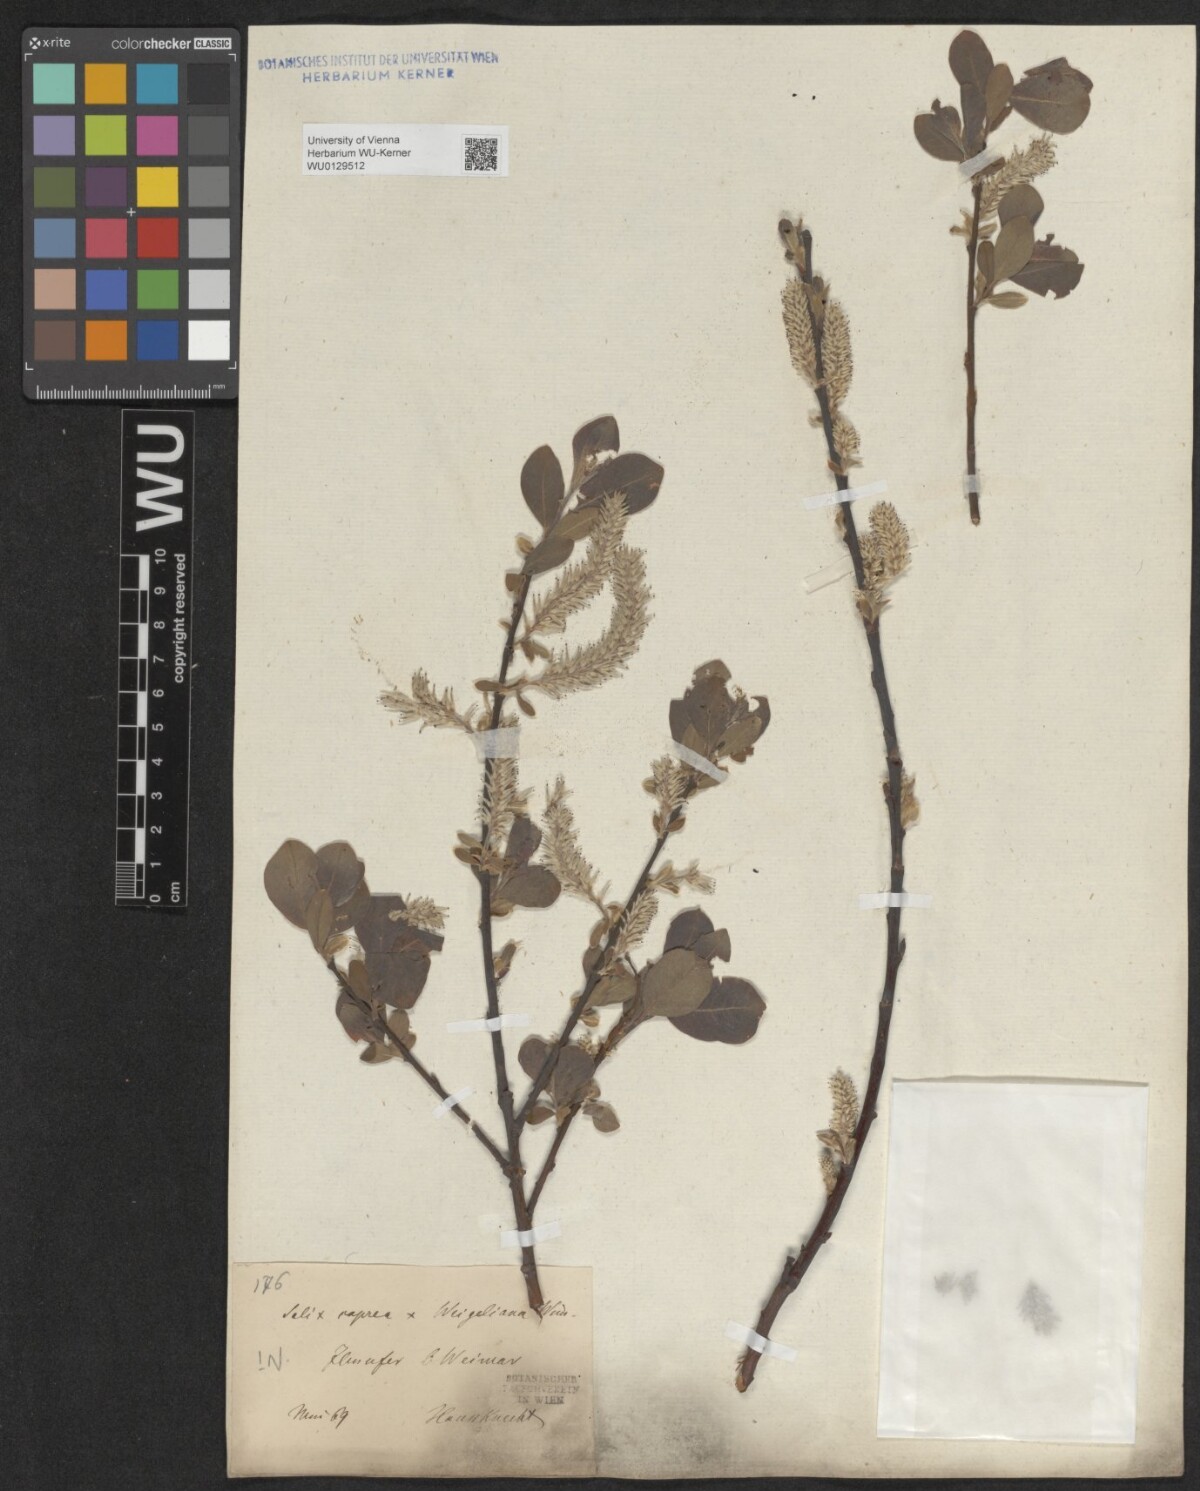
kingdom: Plantae
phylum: Tracheophyta
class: Magnoliopsida
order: Malpighiales
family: Salicaceae
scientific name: Salicaceae
